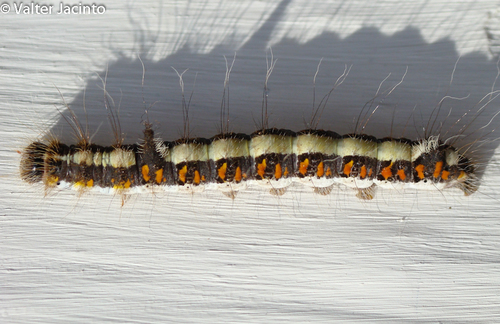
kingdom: Animalia
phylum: Arthropoda
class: Insecta
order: Lepidoptera
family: Noctuidae
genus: Acronicta
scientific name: Acronicta psi
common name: Grey dagger
